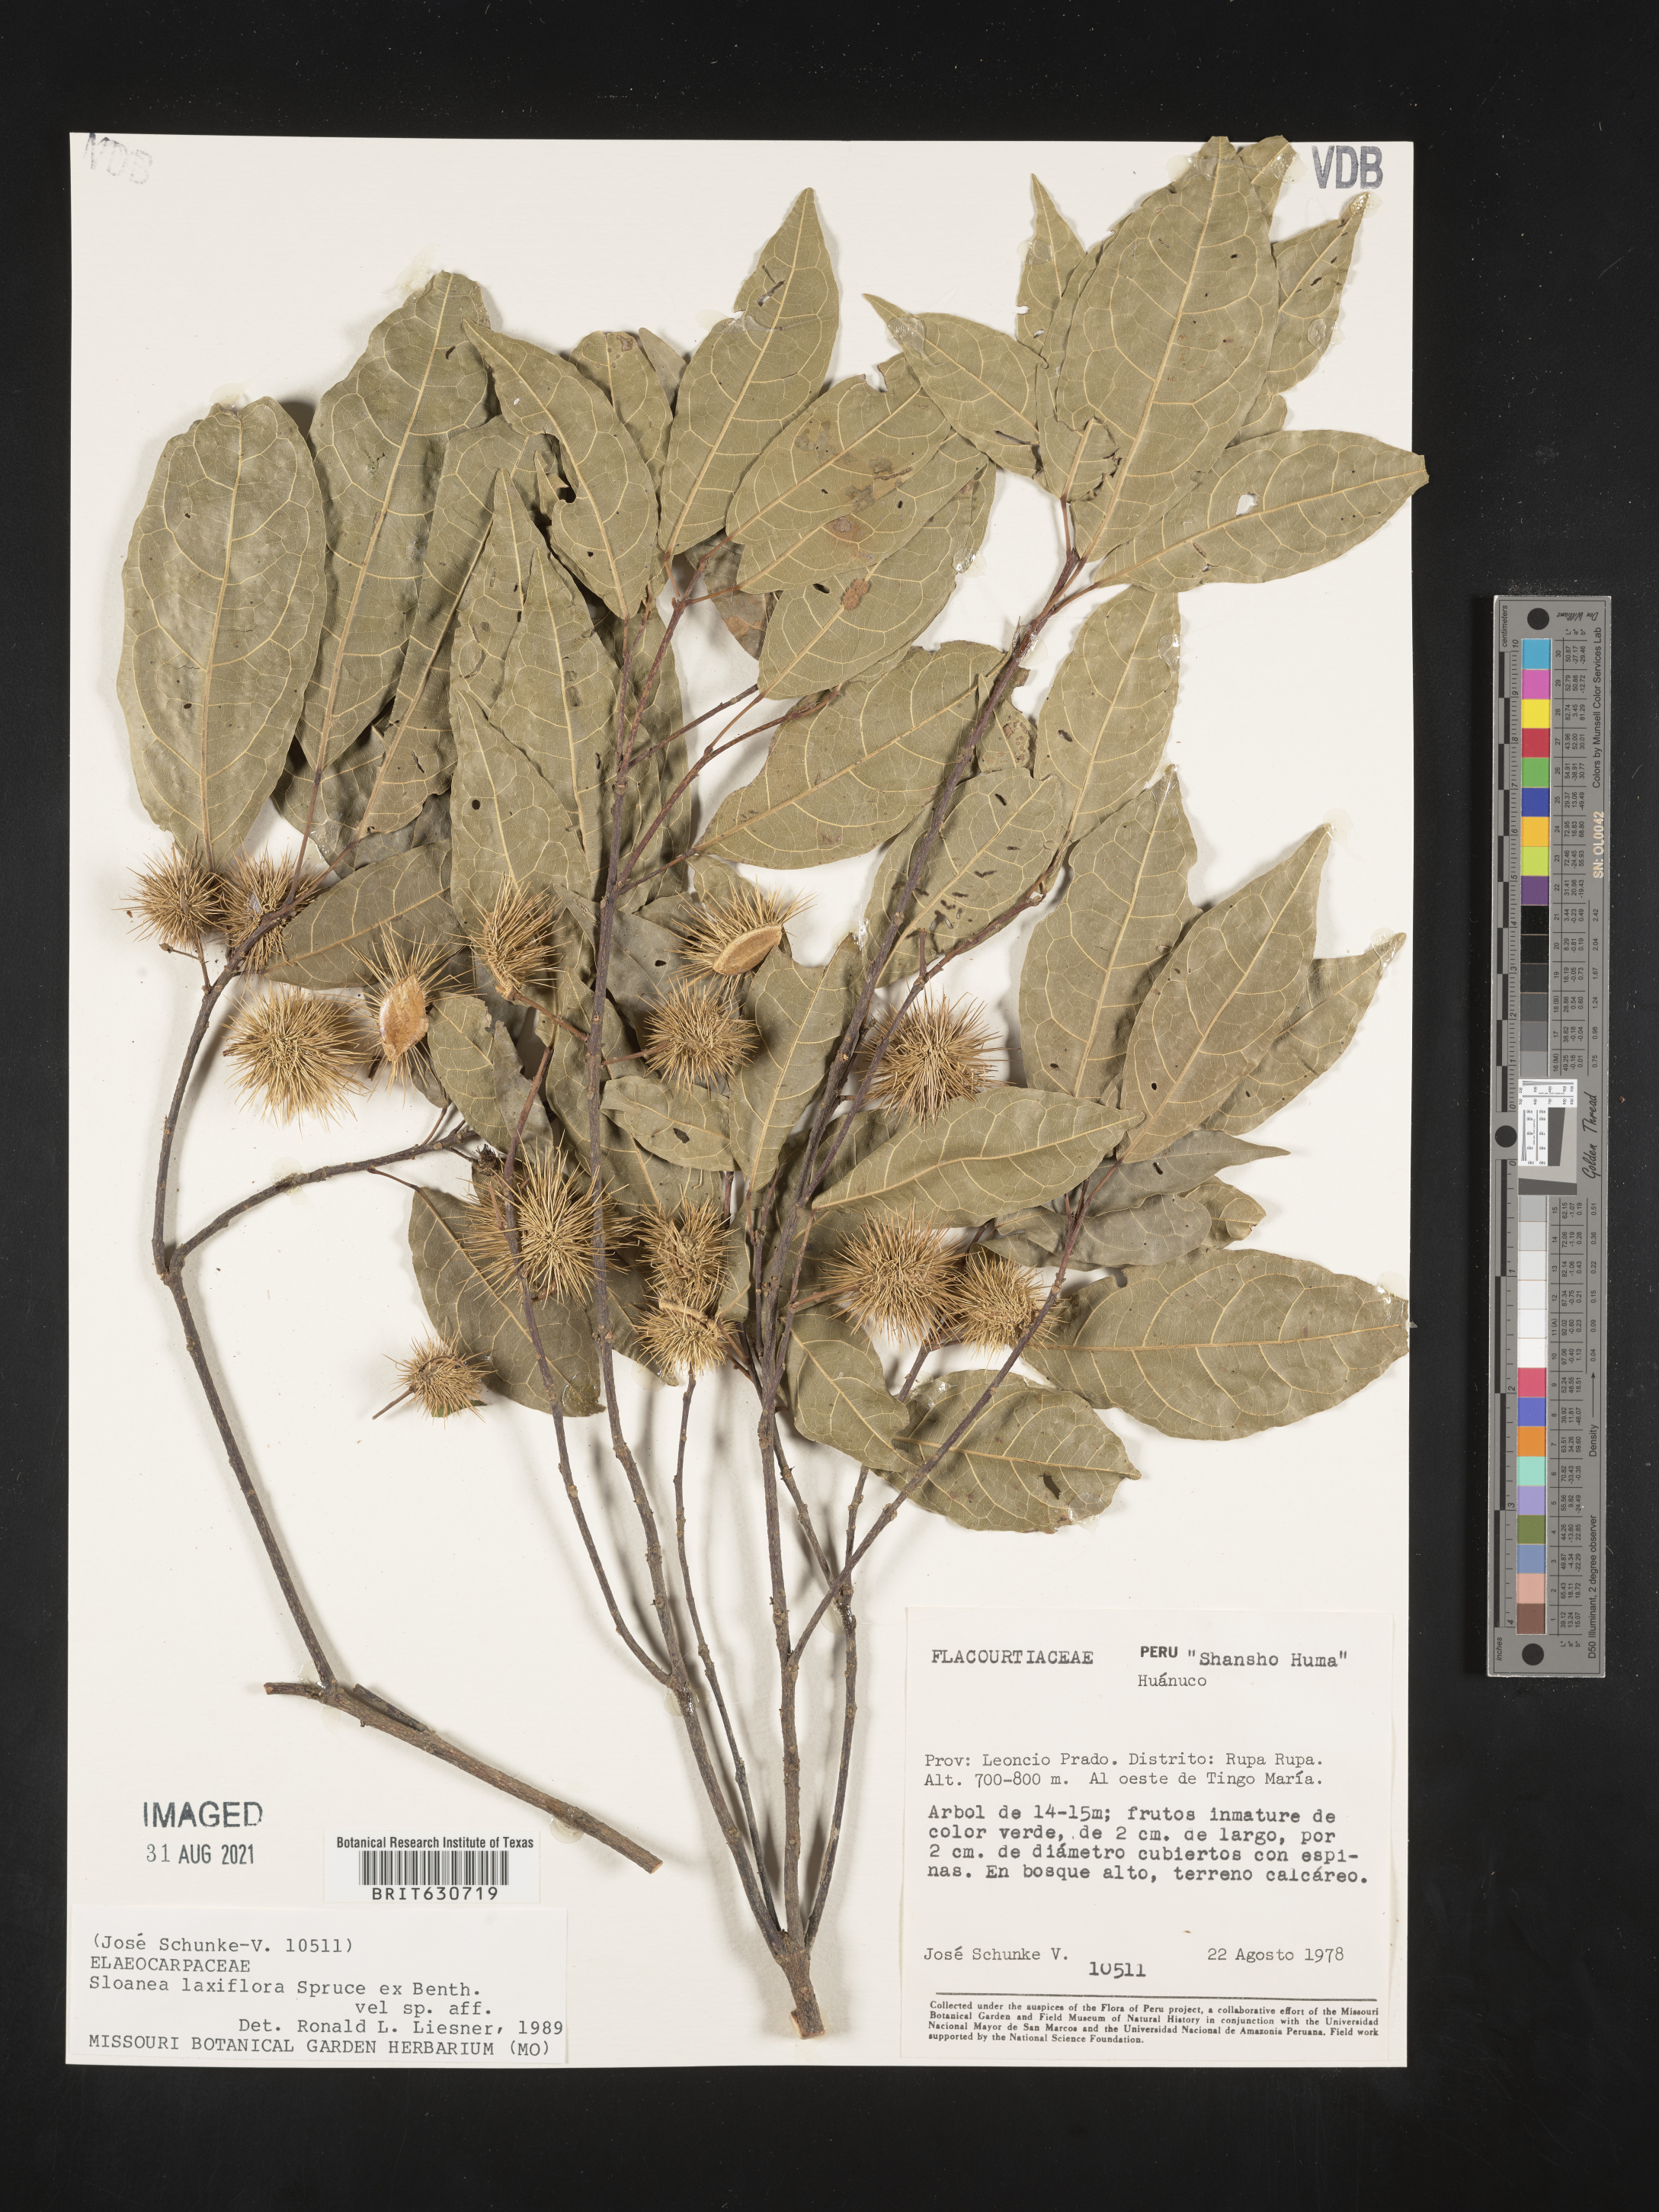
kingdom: Plantae
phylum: Tracheophyta
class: Magnoliopsida
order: Oxalidales
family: Elaeocarpaceae
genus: Sloanea
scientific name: Sloanea
